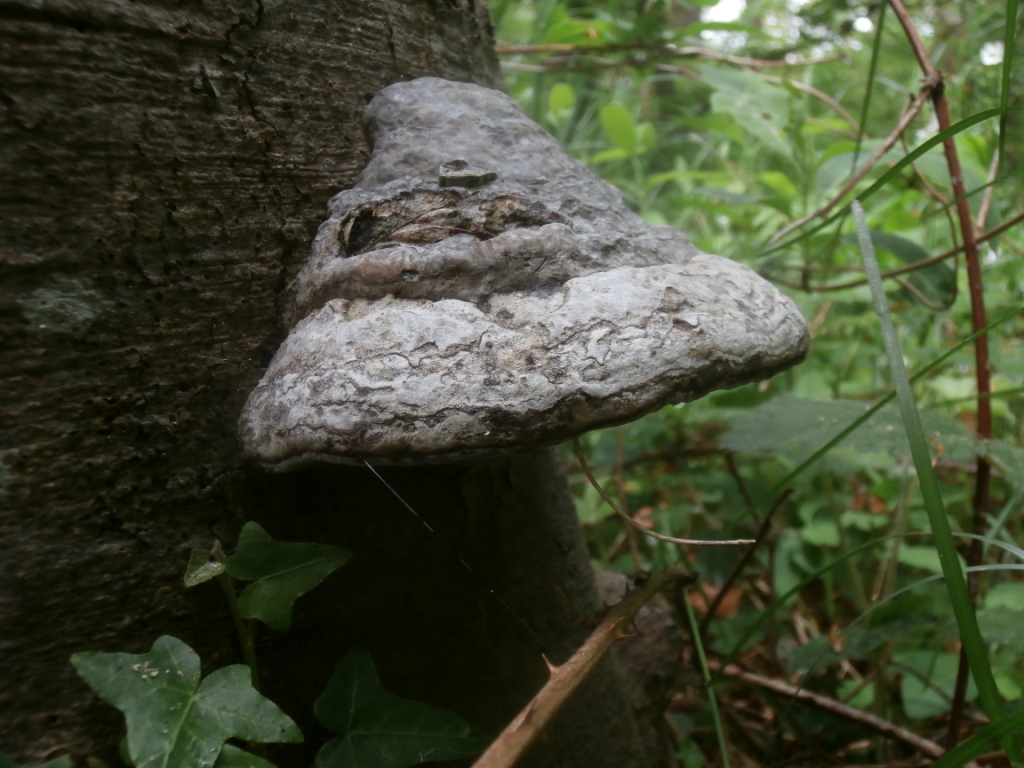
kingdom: Fungi
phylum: Basidiomycota
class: Agaricomycetes
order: Polyporales
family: Polyporaceae
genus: Fomes
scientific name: Fomes fomentarius
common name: tøndersvamp
